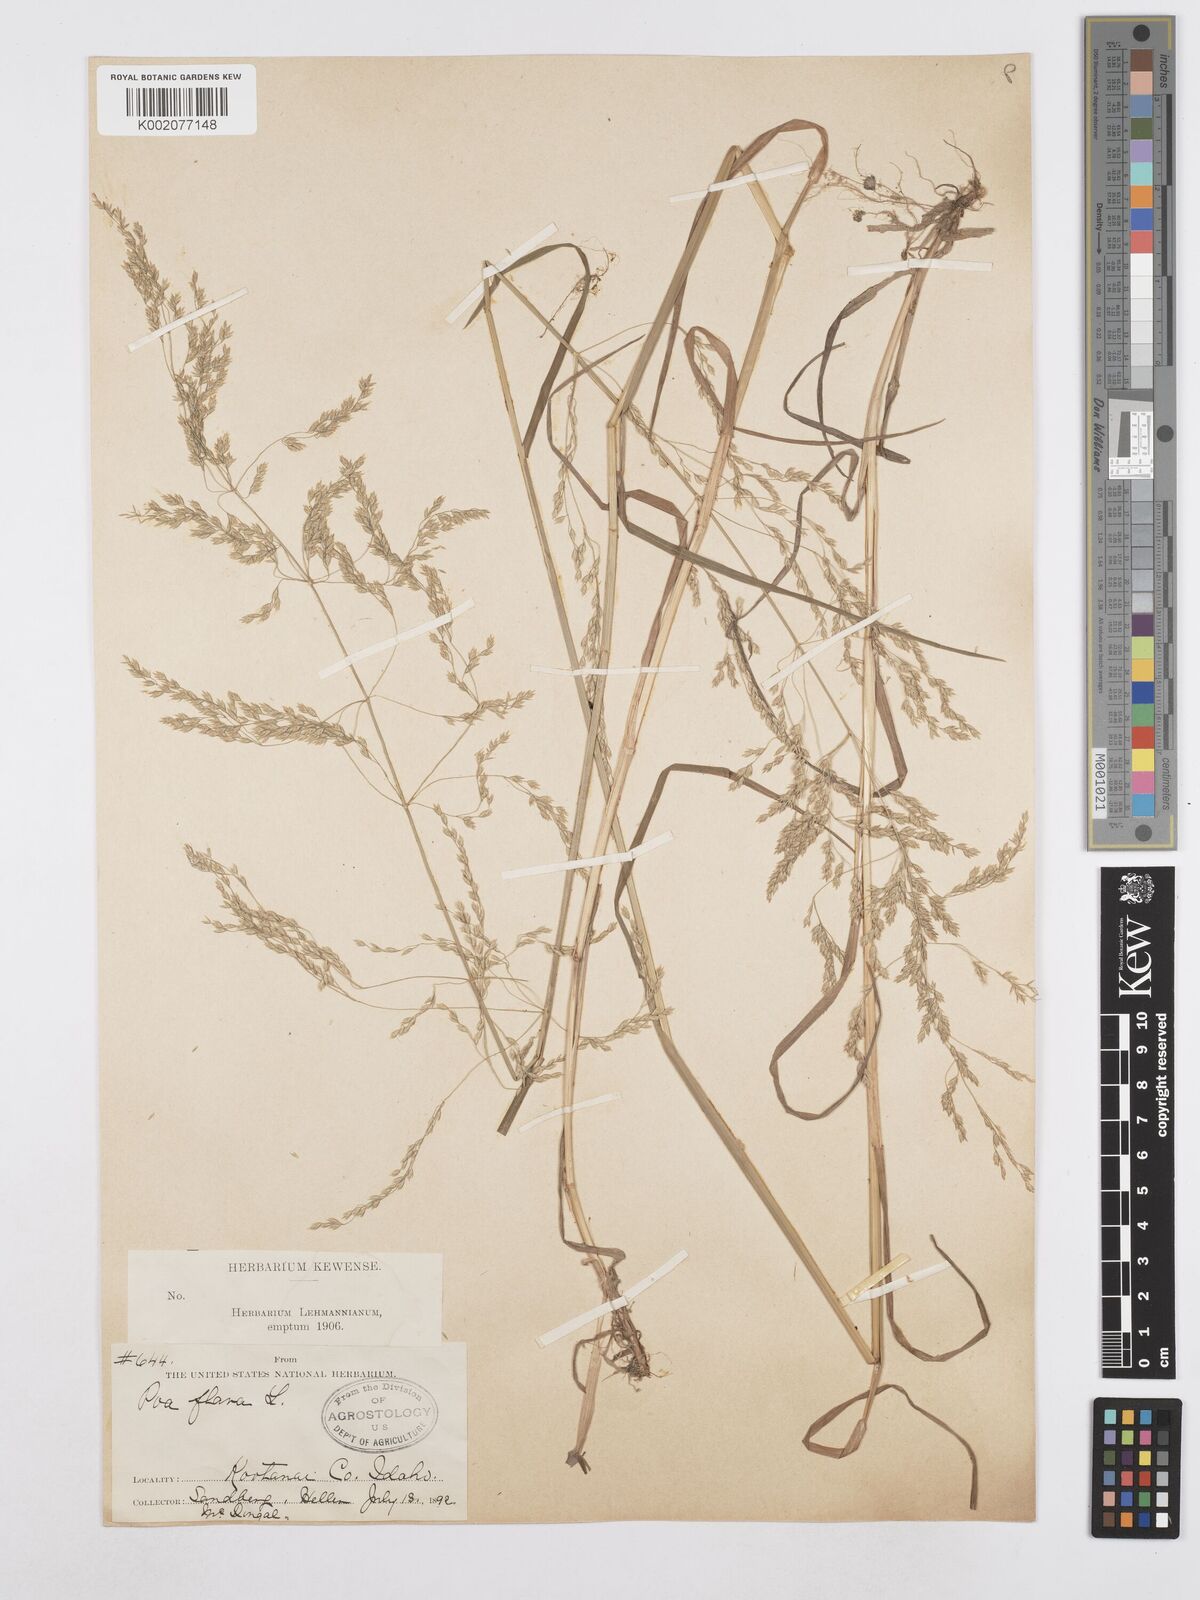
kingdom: Plantae
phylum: Tracheophyta
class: Liliopsida
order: Poales
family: Poaceae
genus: Poa
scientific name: Poa palustris
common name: Swamp meadow-grass
